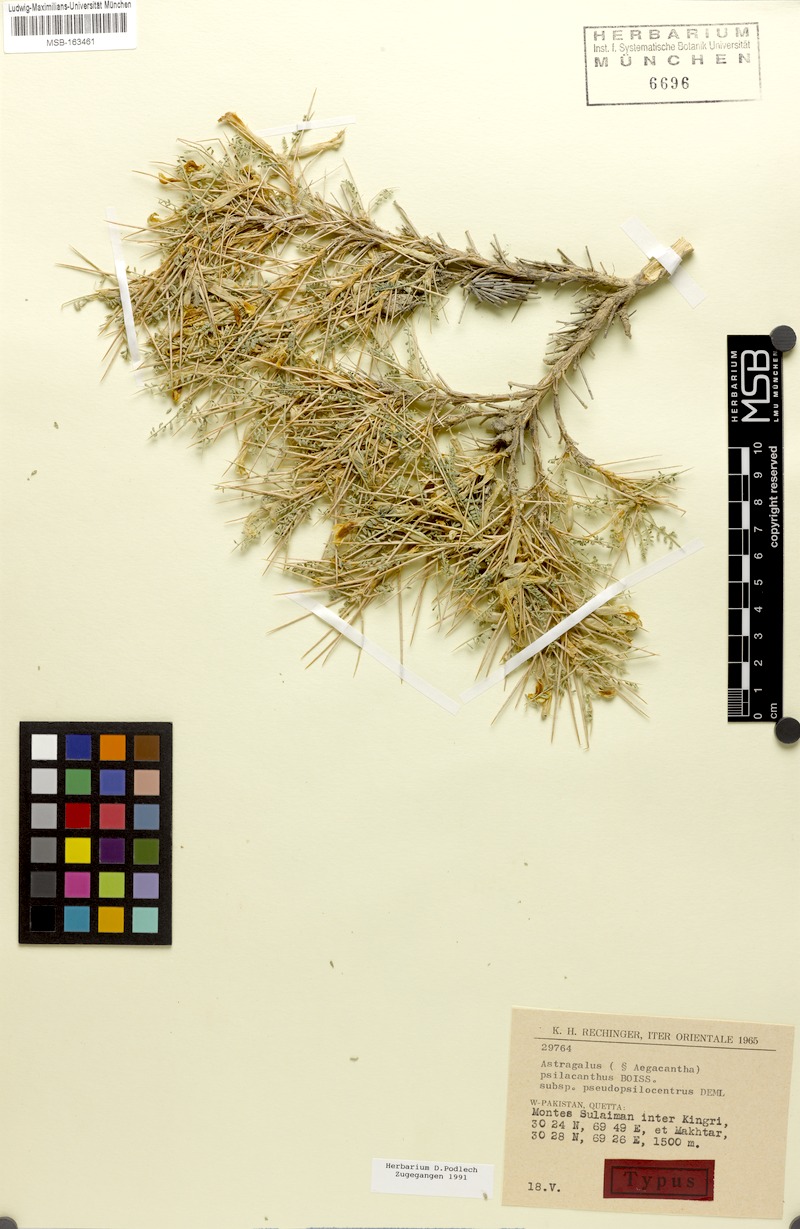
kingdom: Plantae
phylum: Tracheophyta
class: Magnoliopsida
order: Fabales
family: Fabaceae
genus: Astragalus
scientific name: Astragalus psilacanthus
